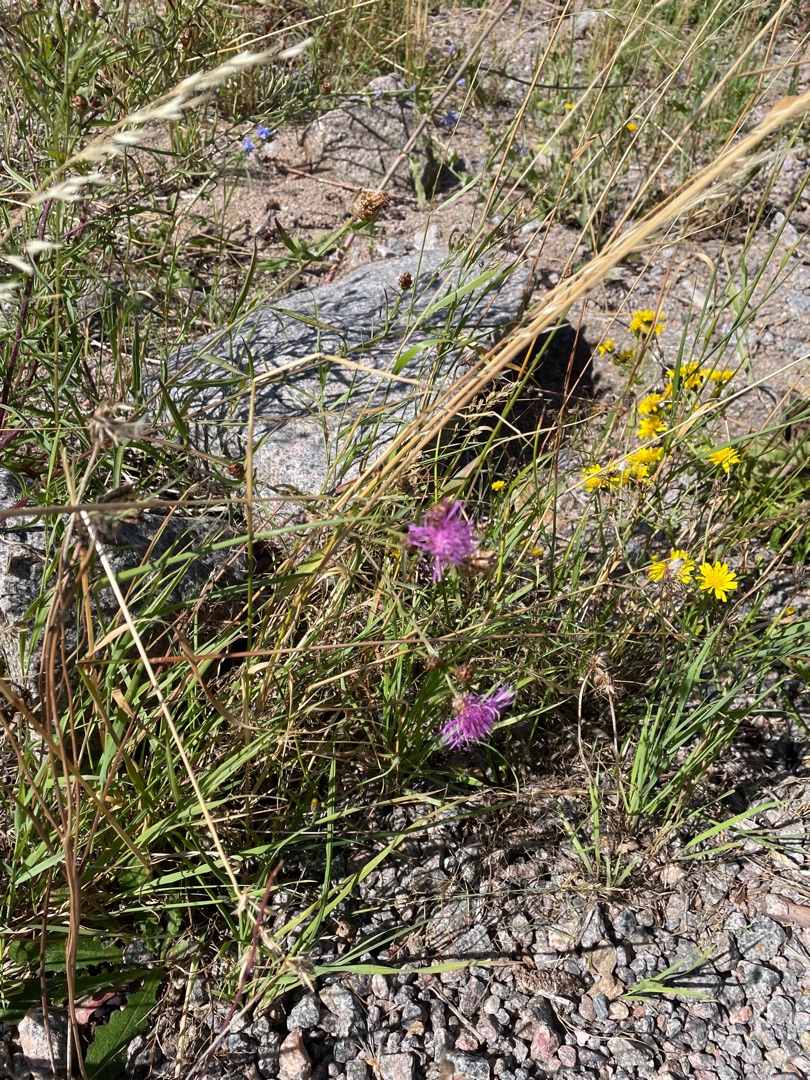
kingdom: Plantae
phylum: Tracheophyta
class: Magnoliopsida
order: Asterales
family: Asteraceae
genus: Centaurea
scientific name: Centaurea jacea
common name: Almindelig knopurt
